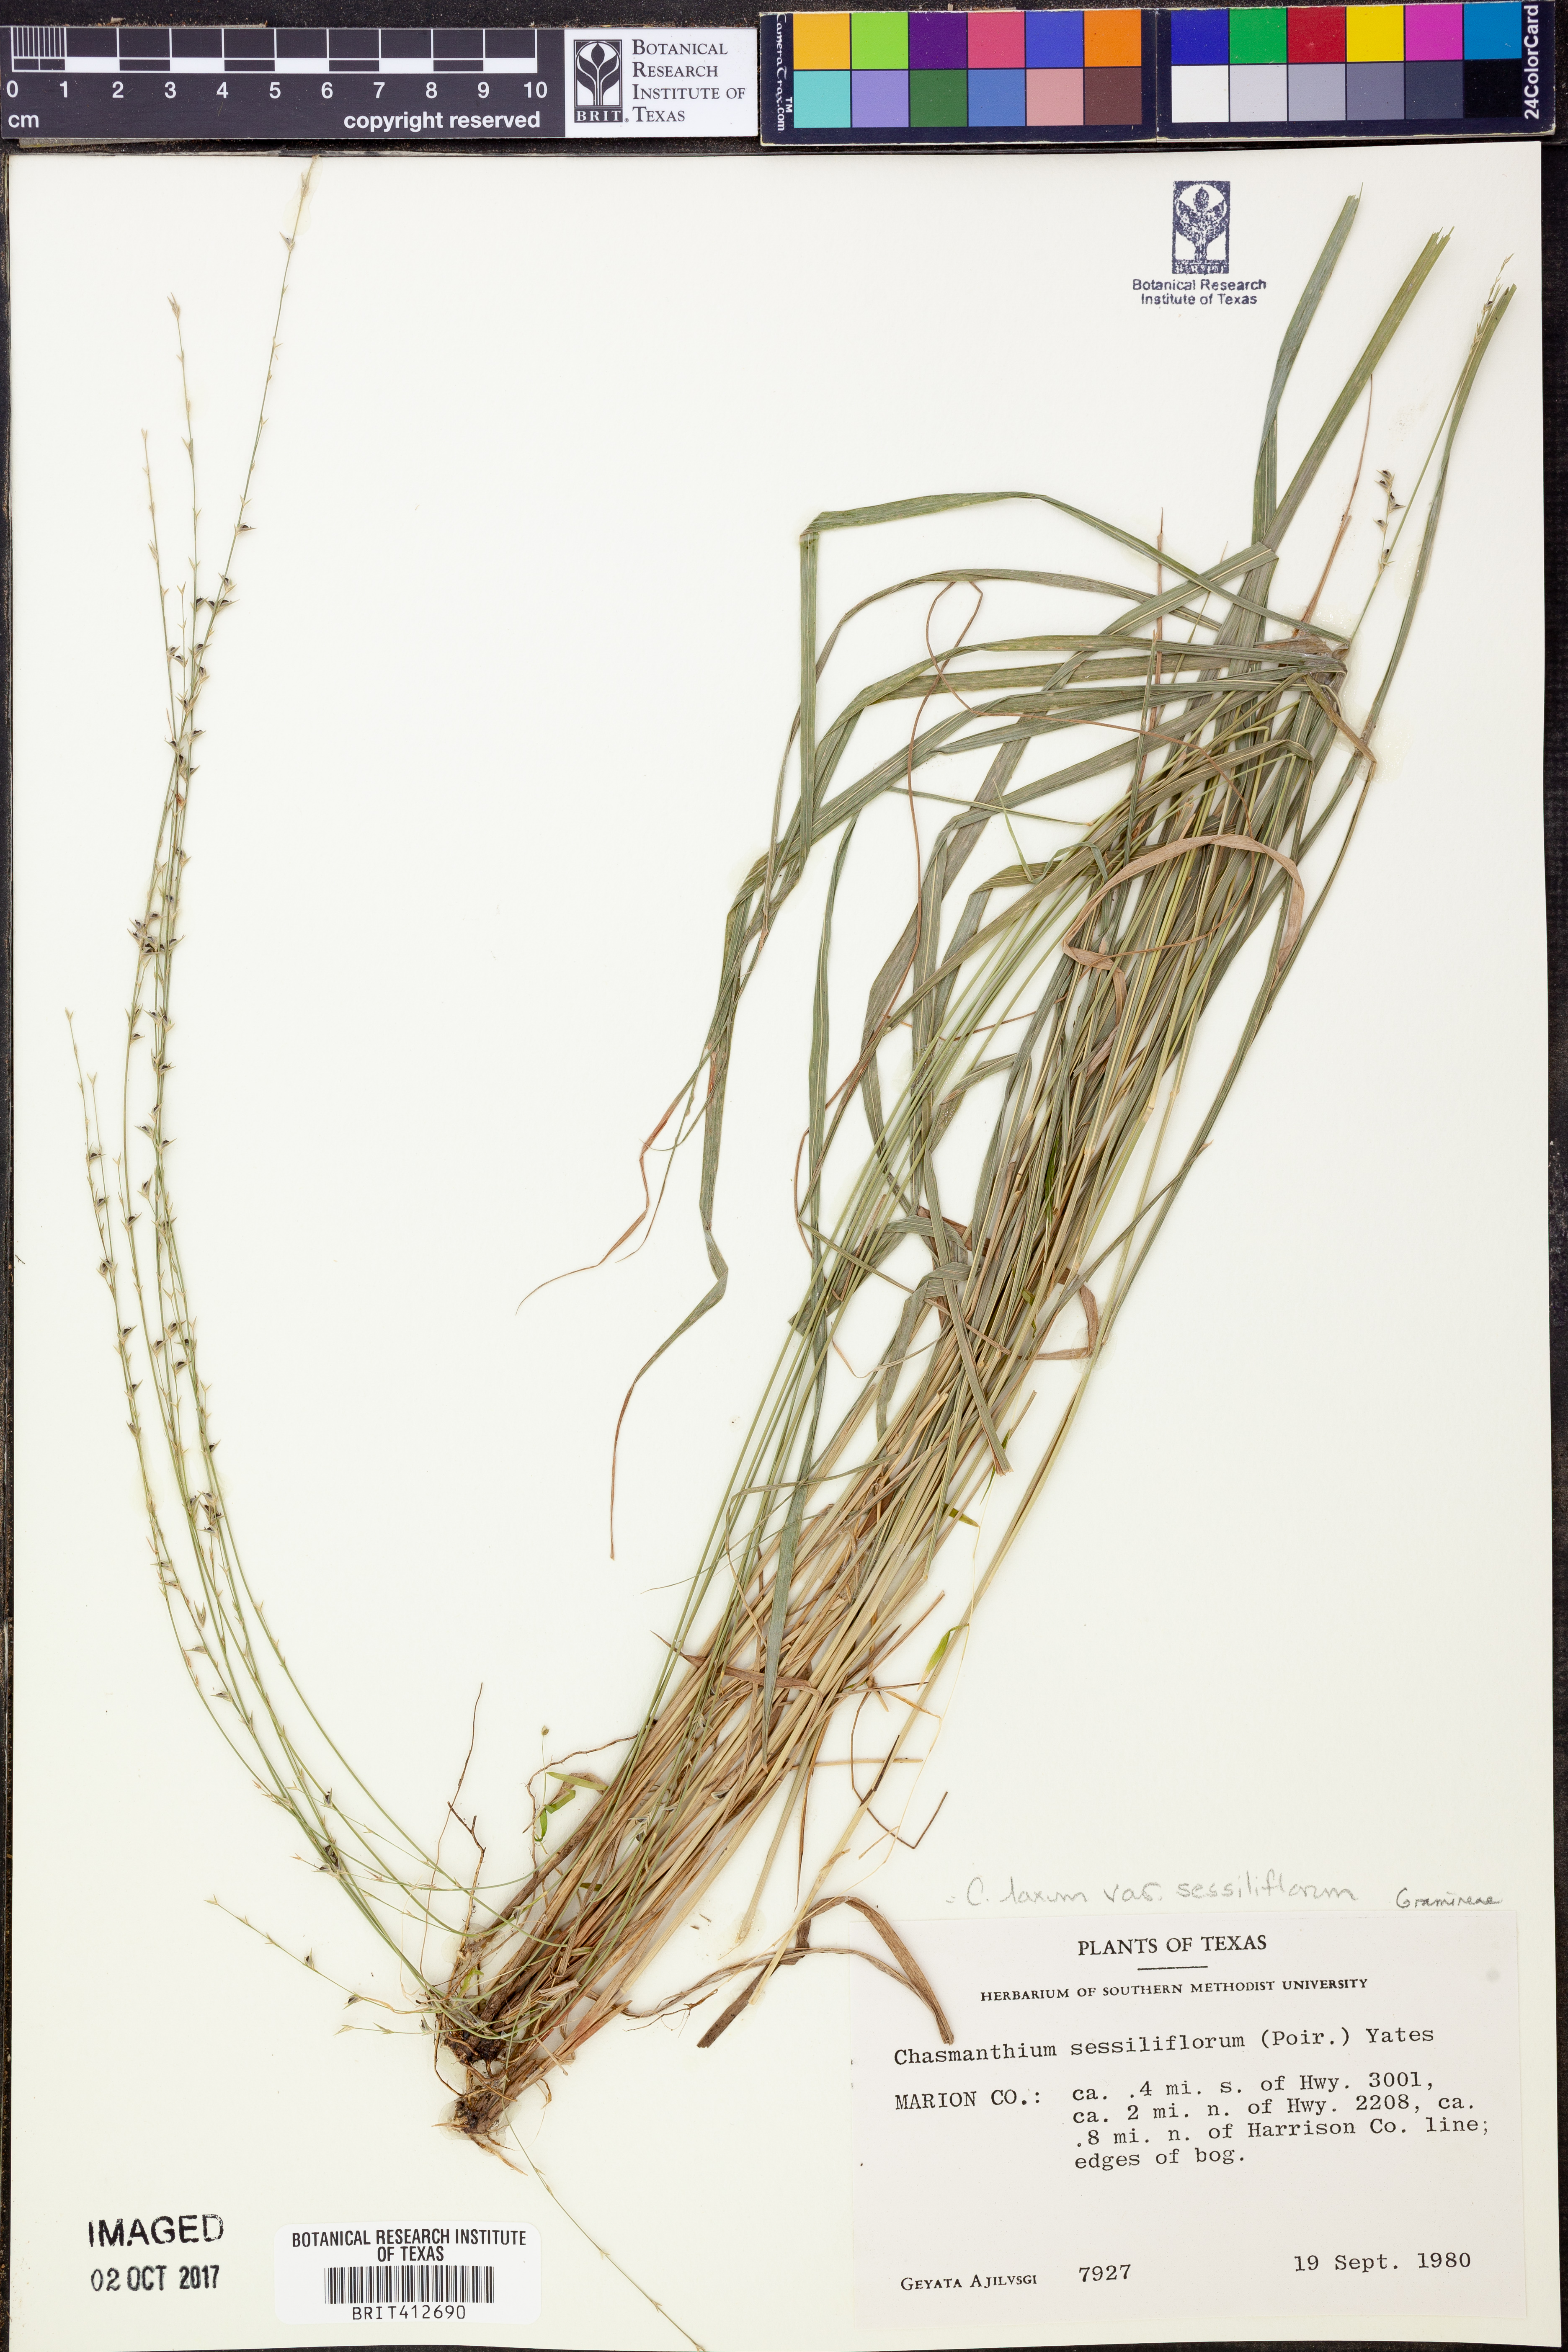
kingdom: Plantae
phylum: Tracheophyta
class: Liliopsida
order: Poales
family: Poaceae
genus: Chasmanthium
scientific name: Chasmanthium laxum
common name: Slender chasmanthium
